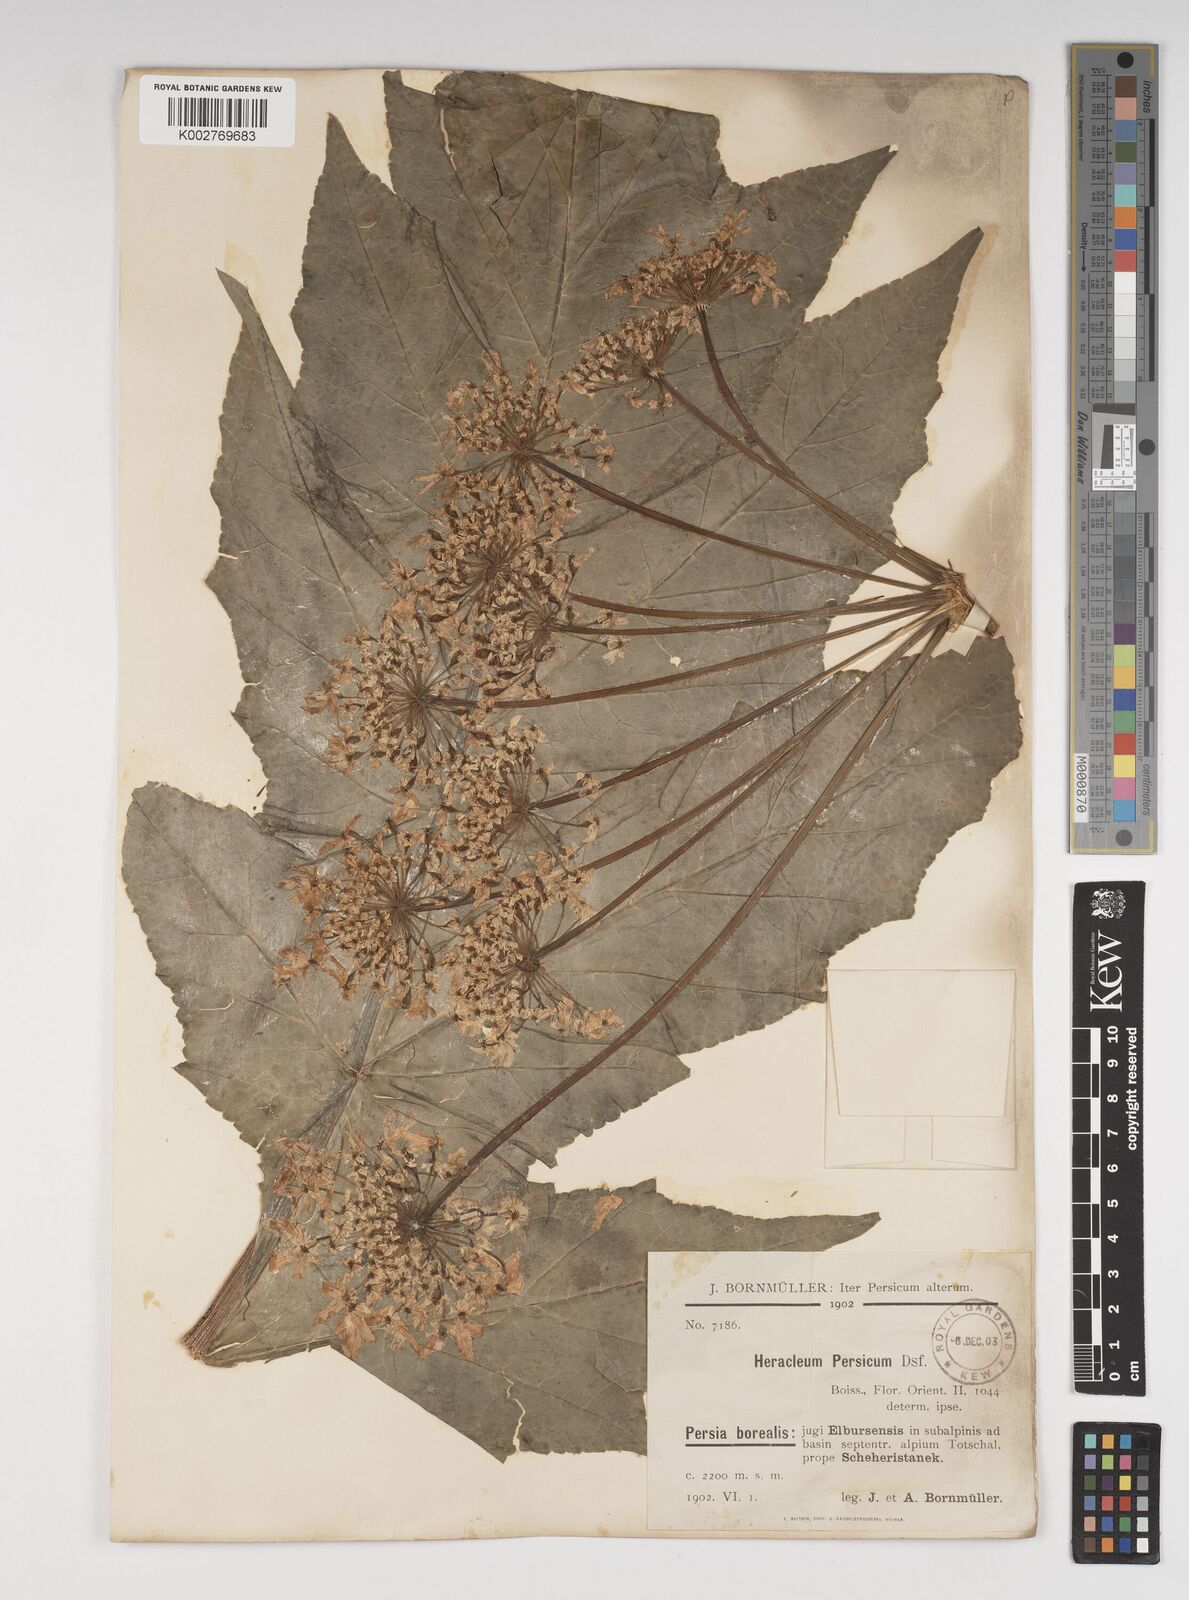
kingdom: Plantae
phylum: Tracheophyta
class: Magnoliopsida
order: Apiales
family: Apiaceae
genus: Heracleum
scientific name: Heracleum persicum
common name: Persian hogweed
